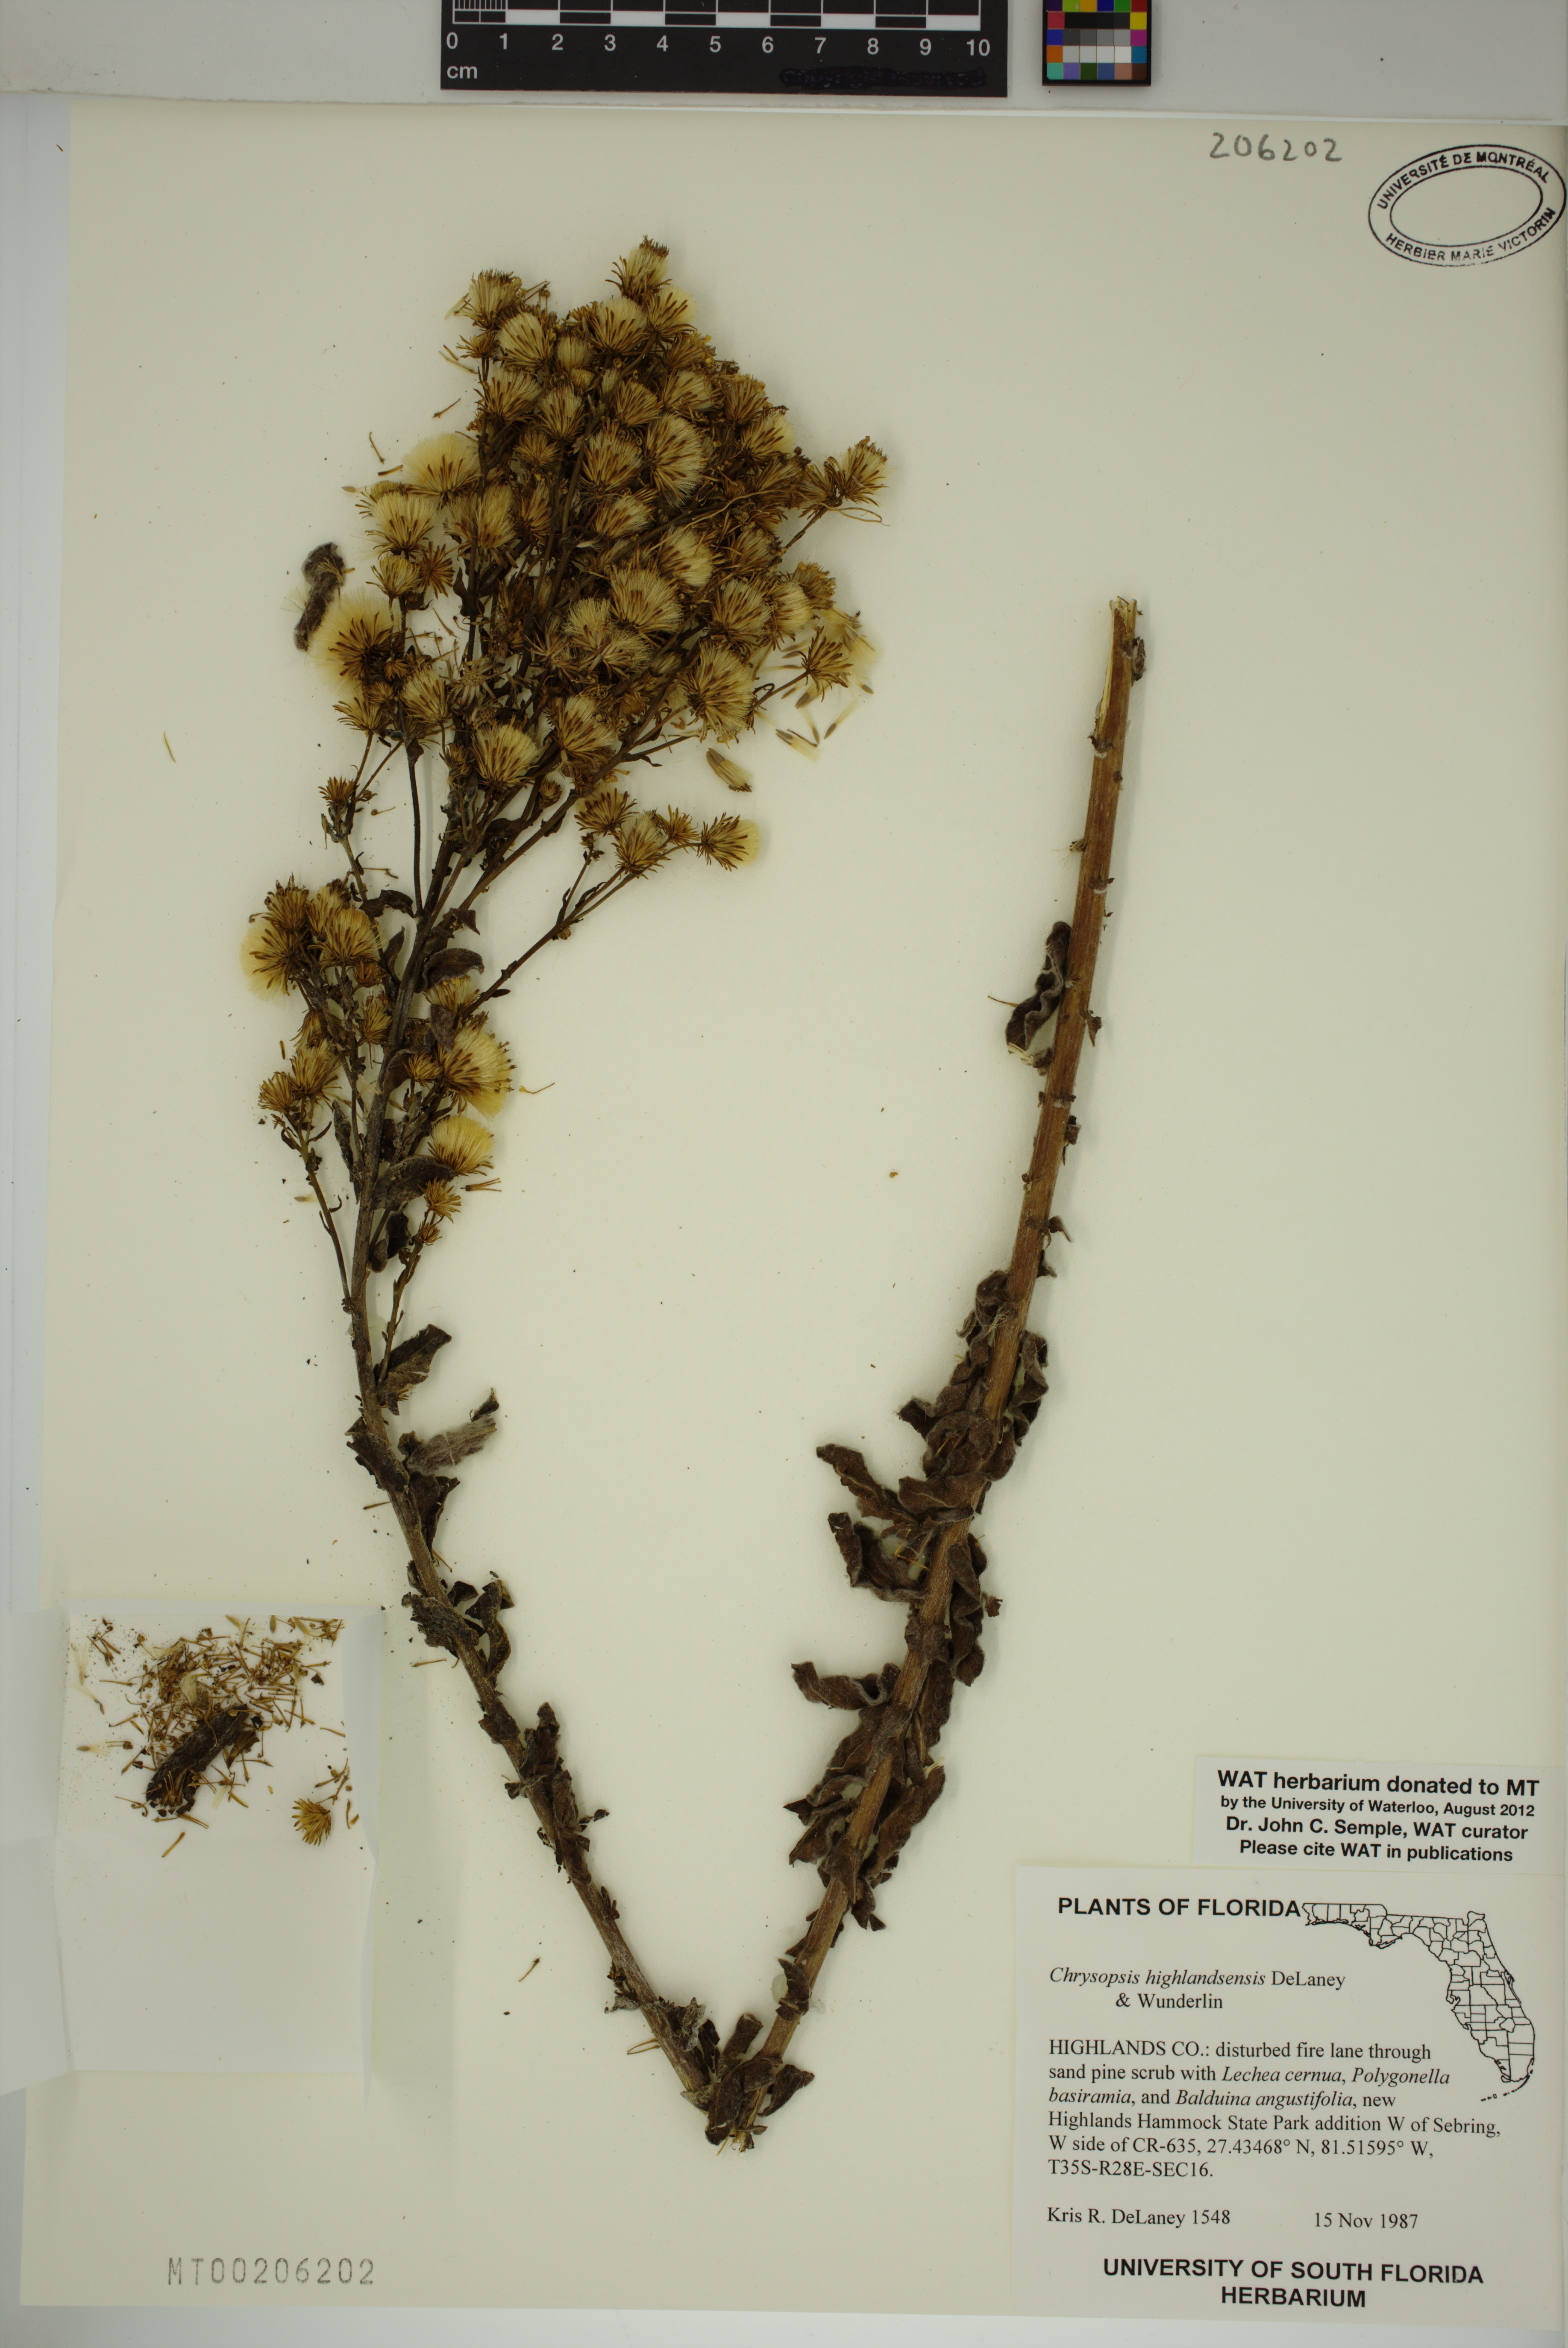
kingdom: Plantae
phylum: Tracheophyta
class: Magnoliopsida
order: Asterales
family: Asteraceae
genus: Chrysopsis
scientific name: Chrysopsis floridana
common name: Florida golden-aster
